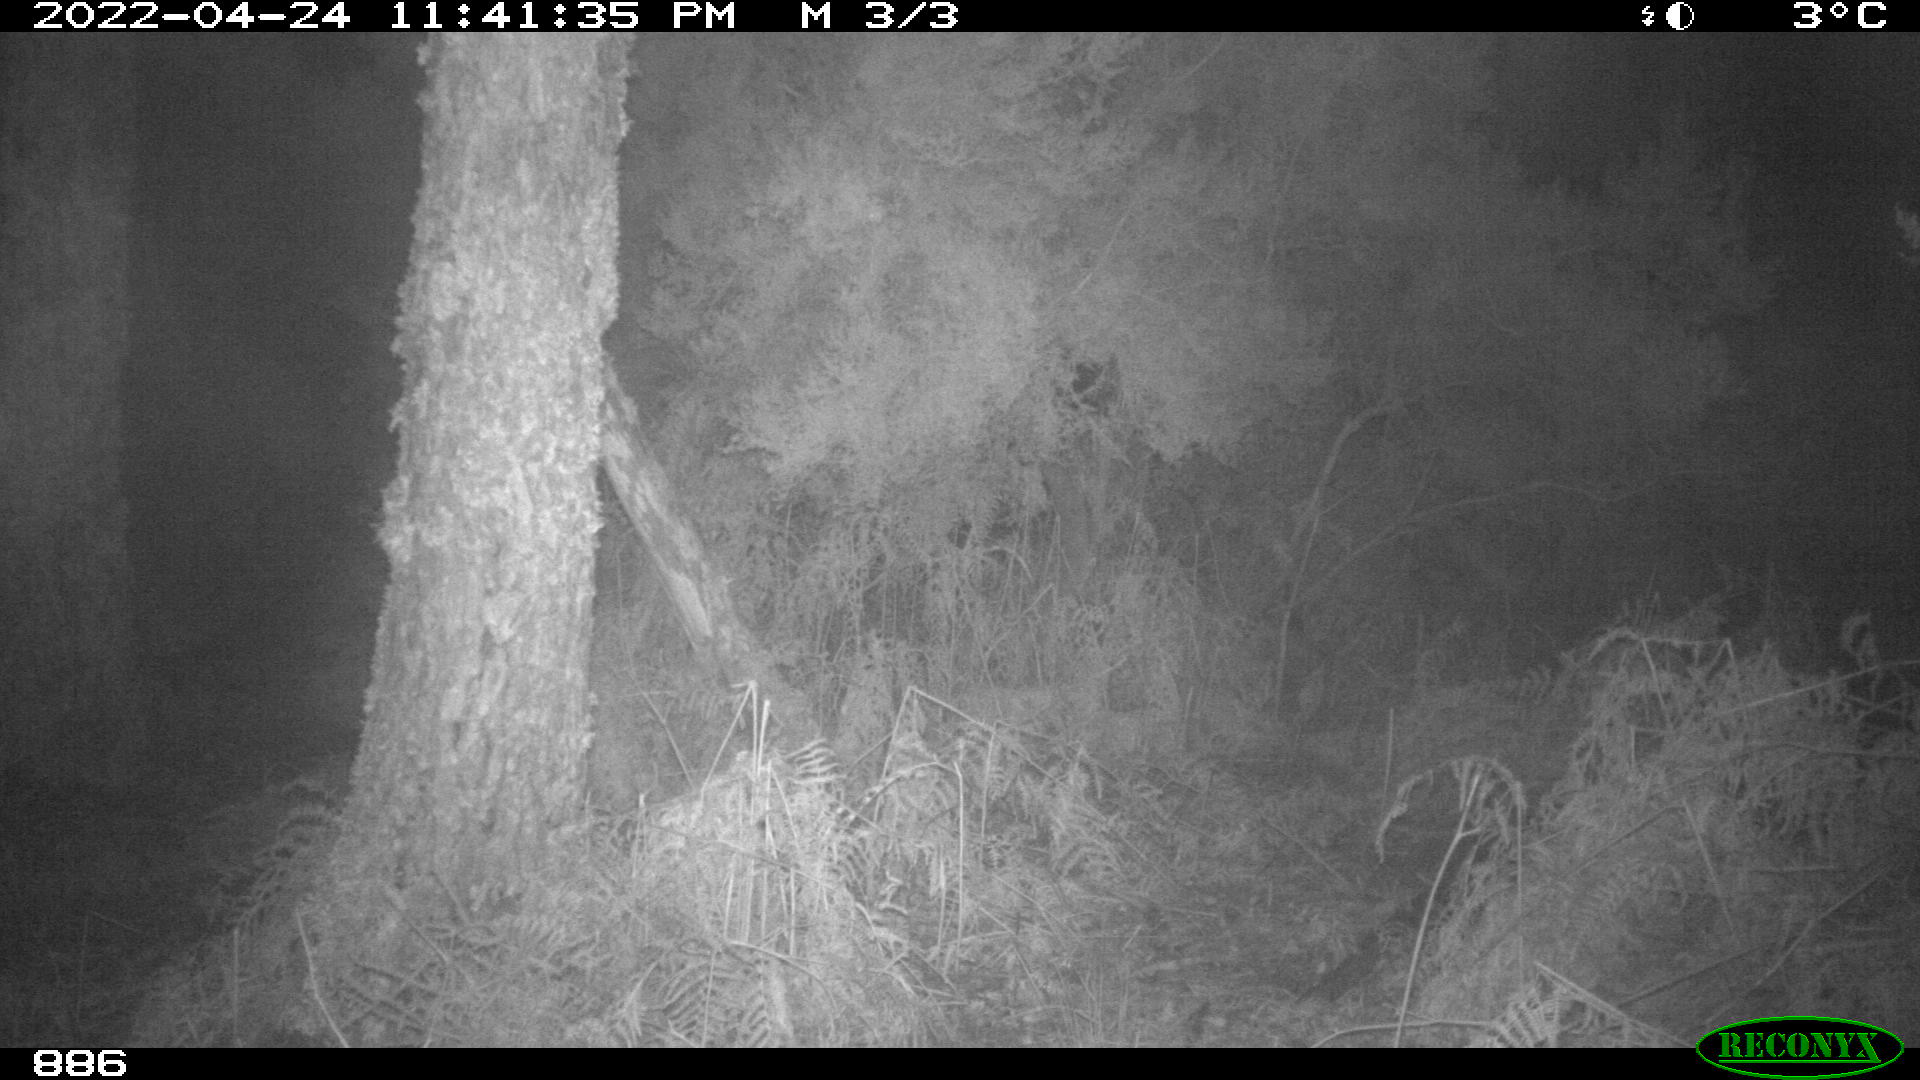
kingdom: Animalia
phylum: Chordata
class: Mammalia
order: Perissodactyla
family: Equidae
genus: Equus
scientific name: Equus caballus
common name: Horse
